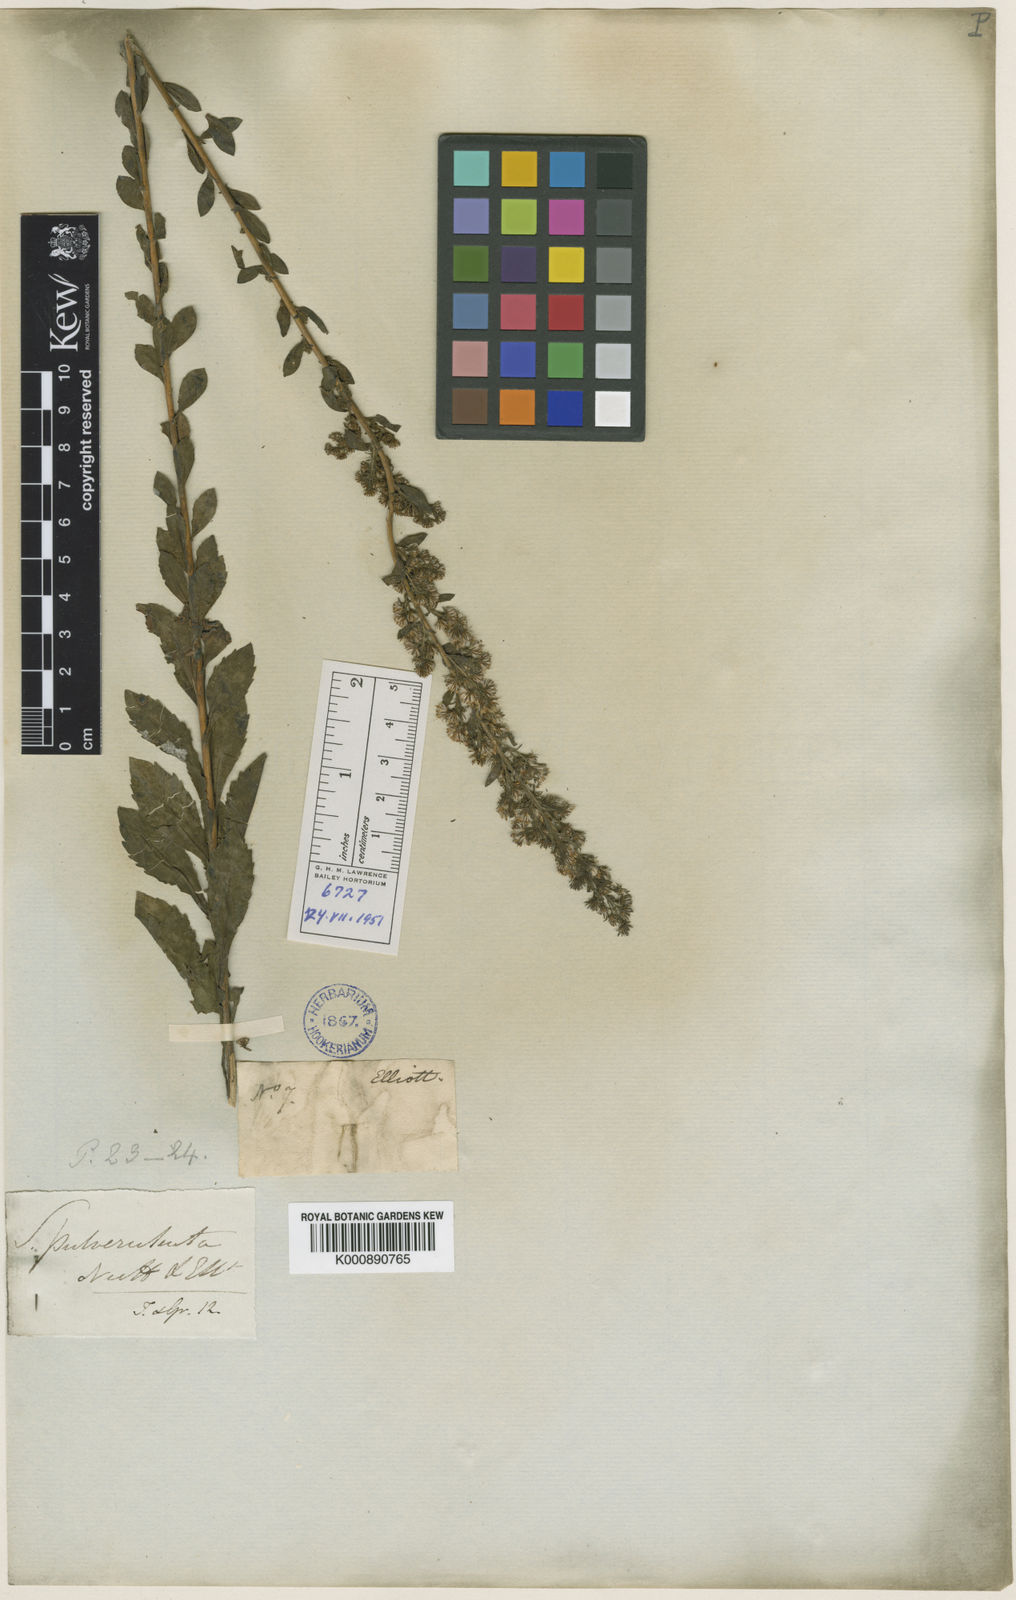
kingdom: Plantae
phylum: Tracheophyta
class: Magnoliopsida
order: Asterales
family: Asteraceae
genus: Solidago
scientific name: Solidago pulverulenta
